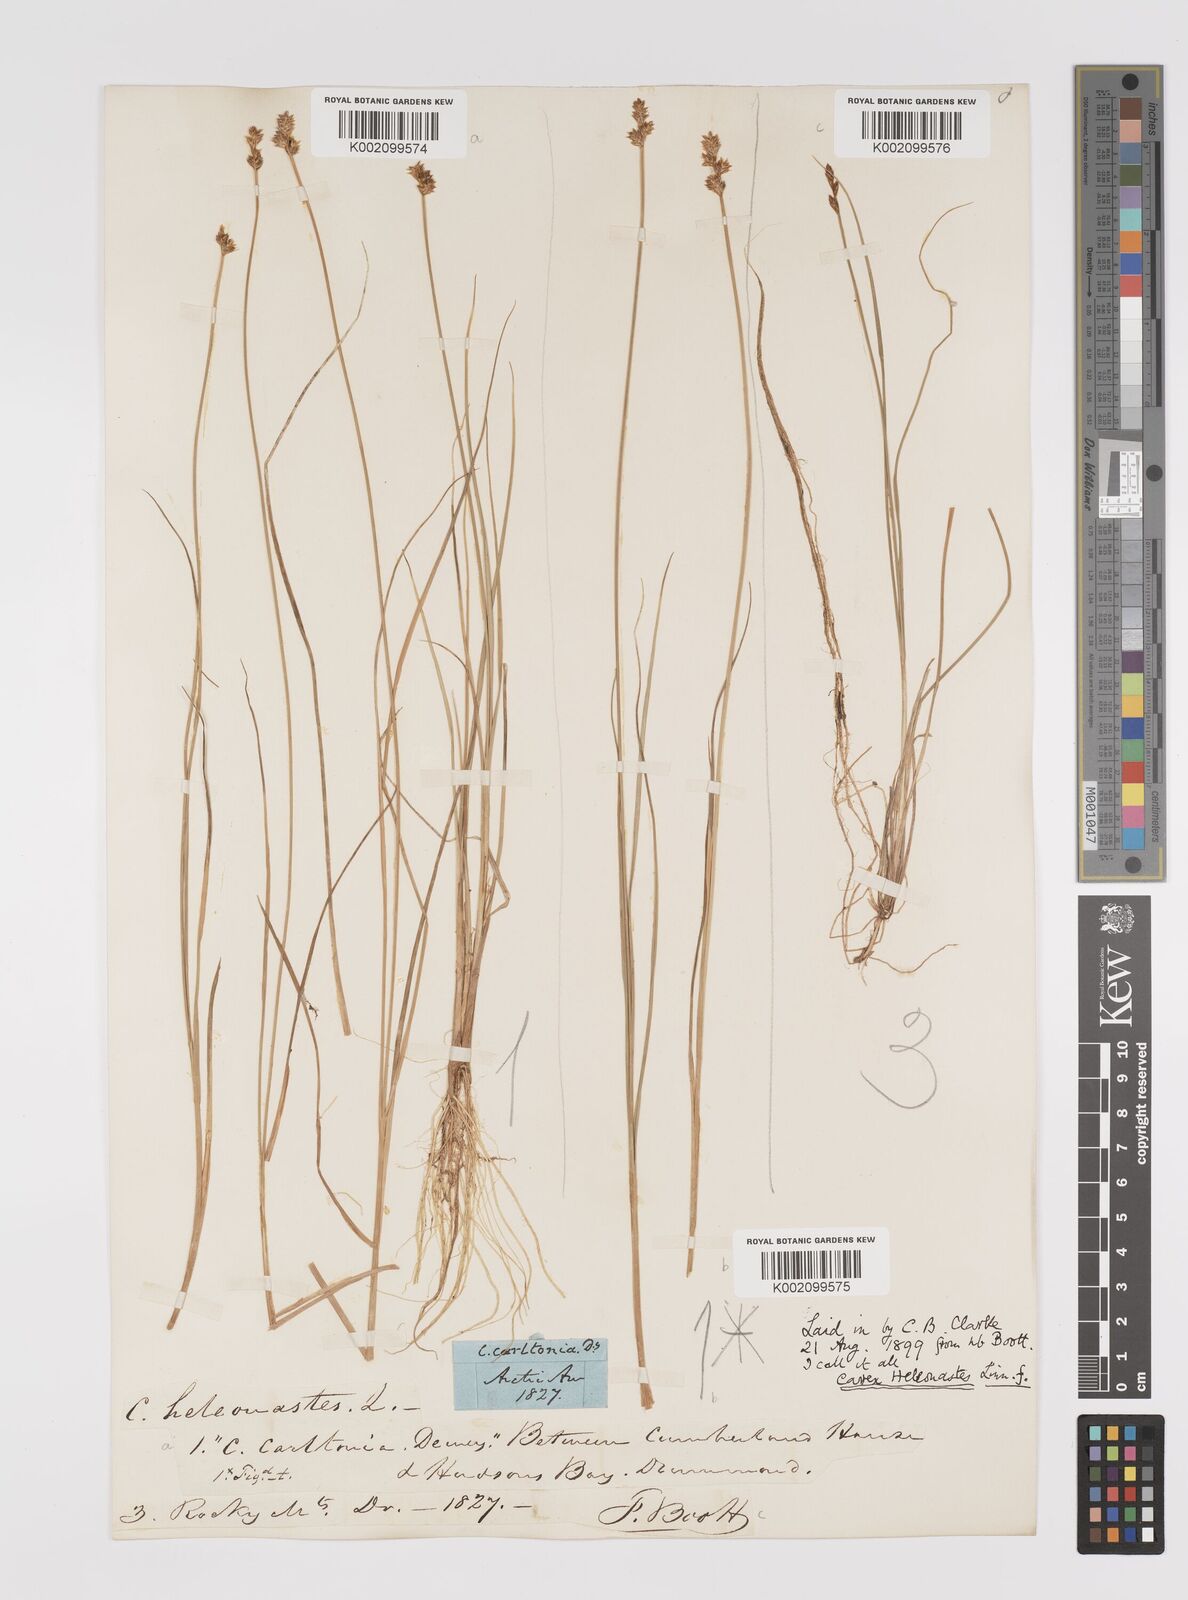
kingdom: Plantae
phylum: Tracheophyta
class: Liliopsida
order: Poales
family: Cyperaceae
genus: Carex
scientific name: Carex heleonastes
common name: Hudson bay sedge
